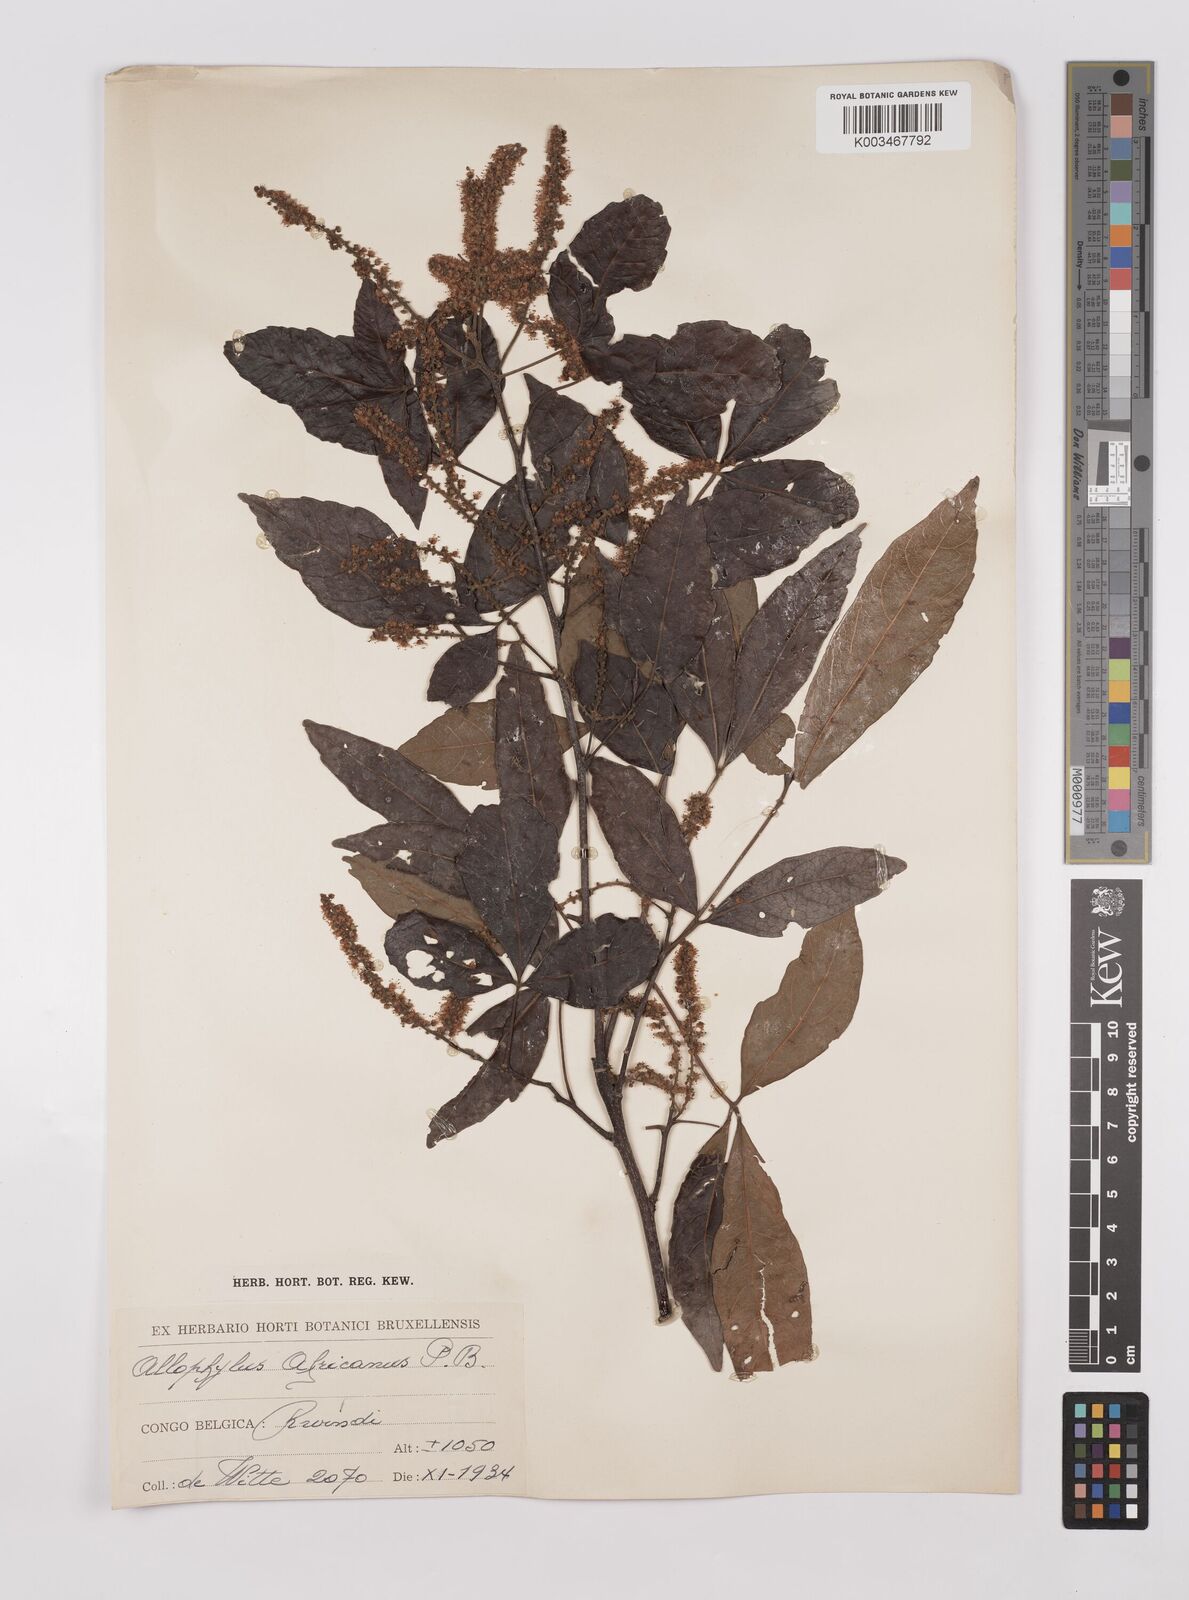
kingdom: Plantae
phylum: Tracheophyta
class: Magnoliopsida
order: Sapindales
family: Sapindaceae
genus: Allophylus
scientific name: Allophylus africanus
